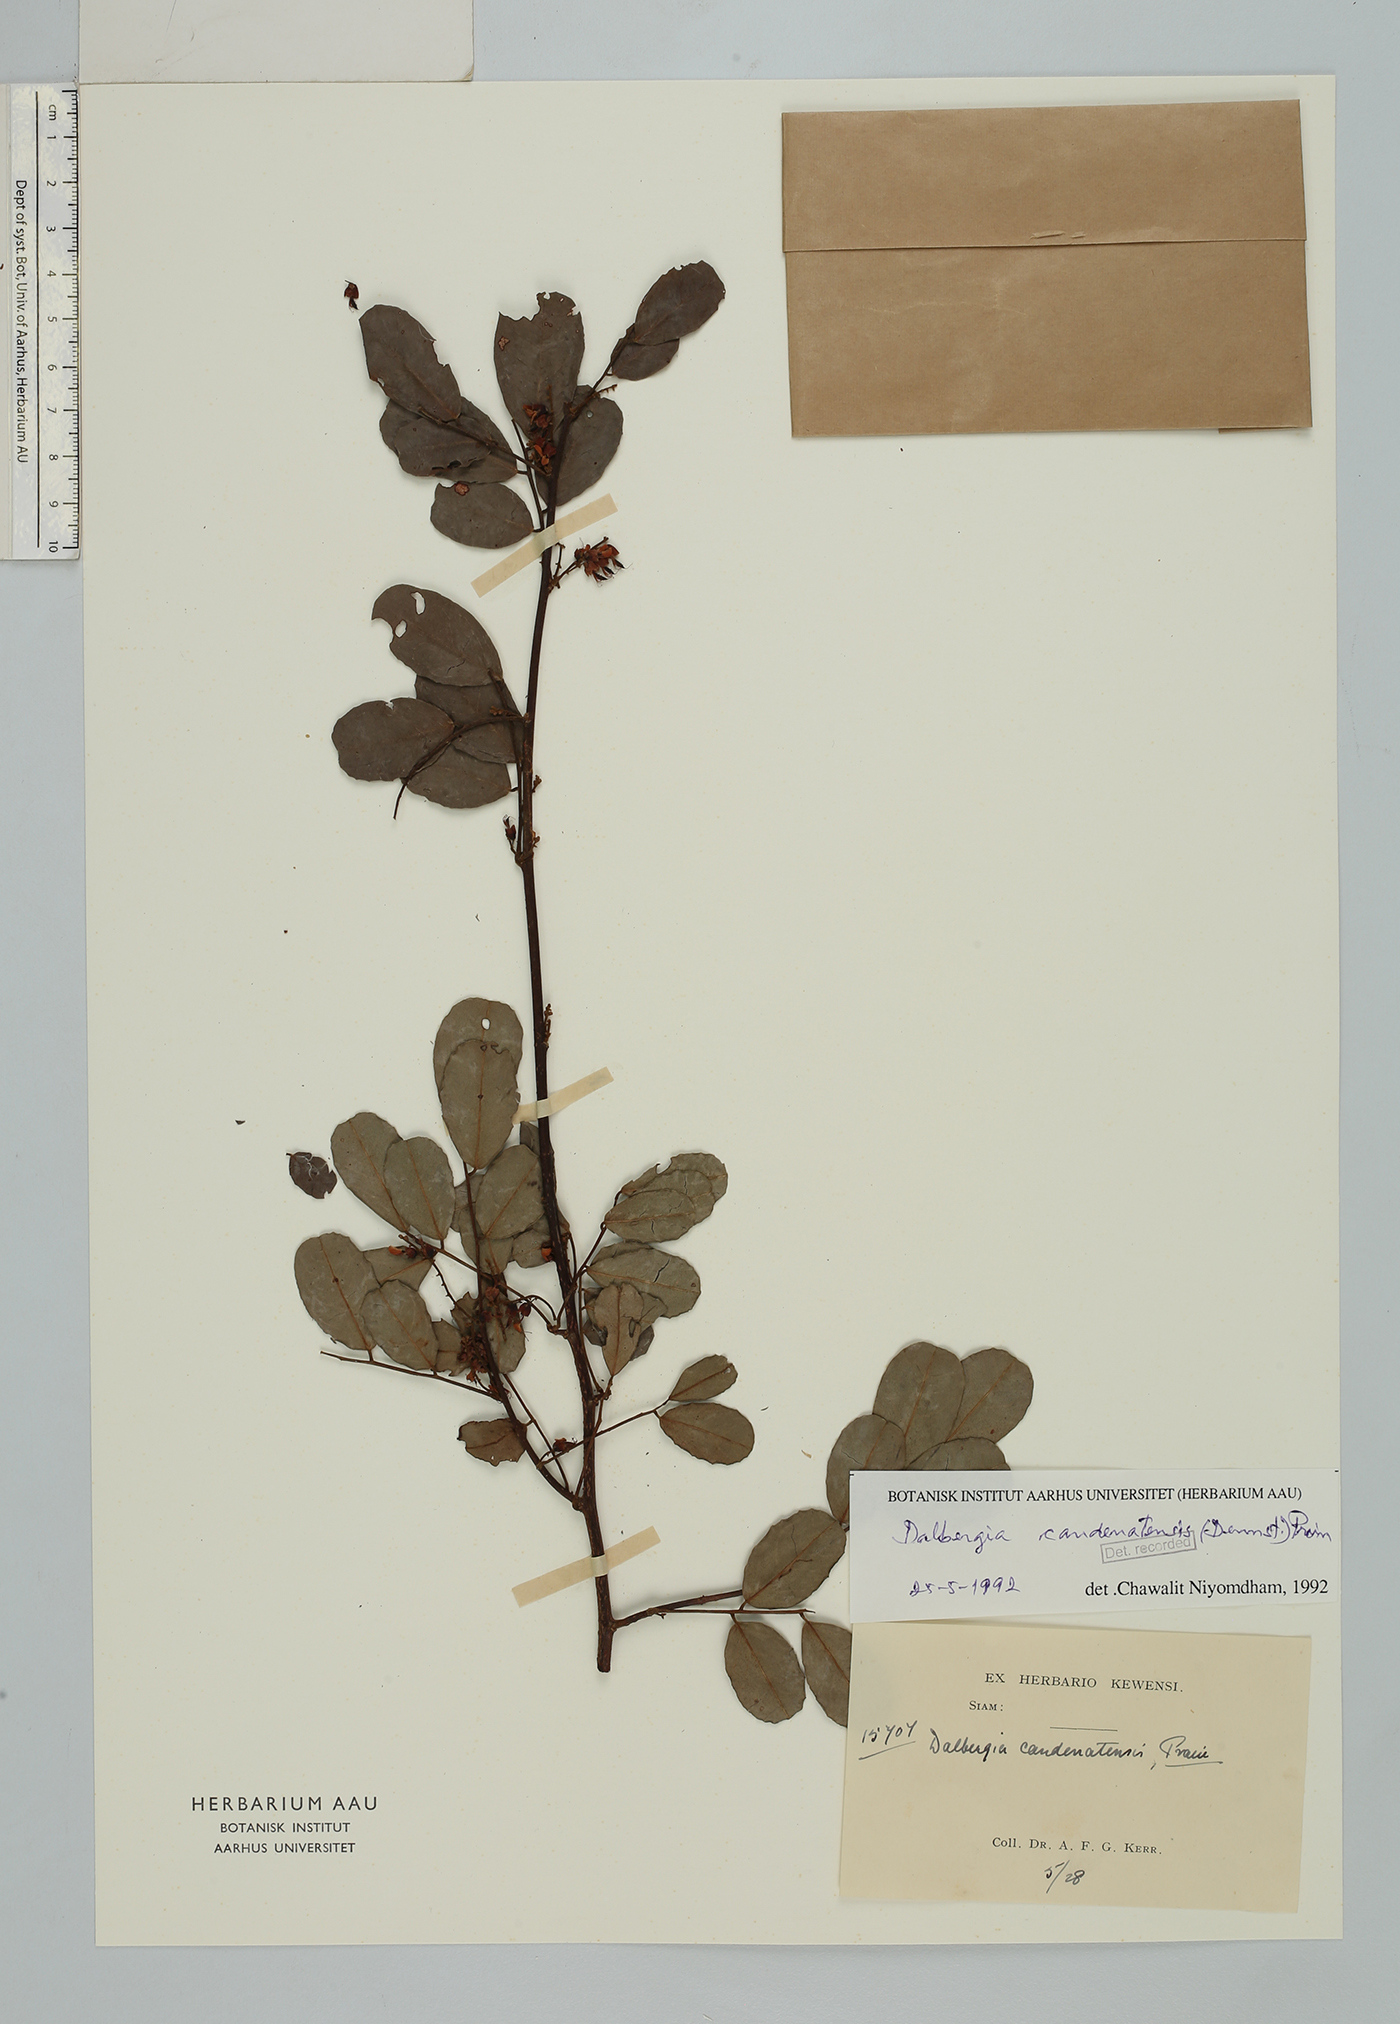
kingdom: Plantae
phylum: Tracheophyta
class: Magnoliopsida
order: Fabales
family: Fabaceae
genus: Dalbergia
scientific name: Dalbergia candenatensis
